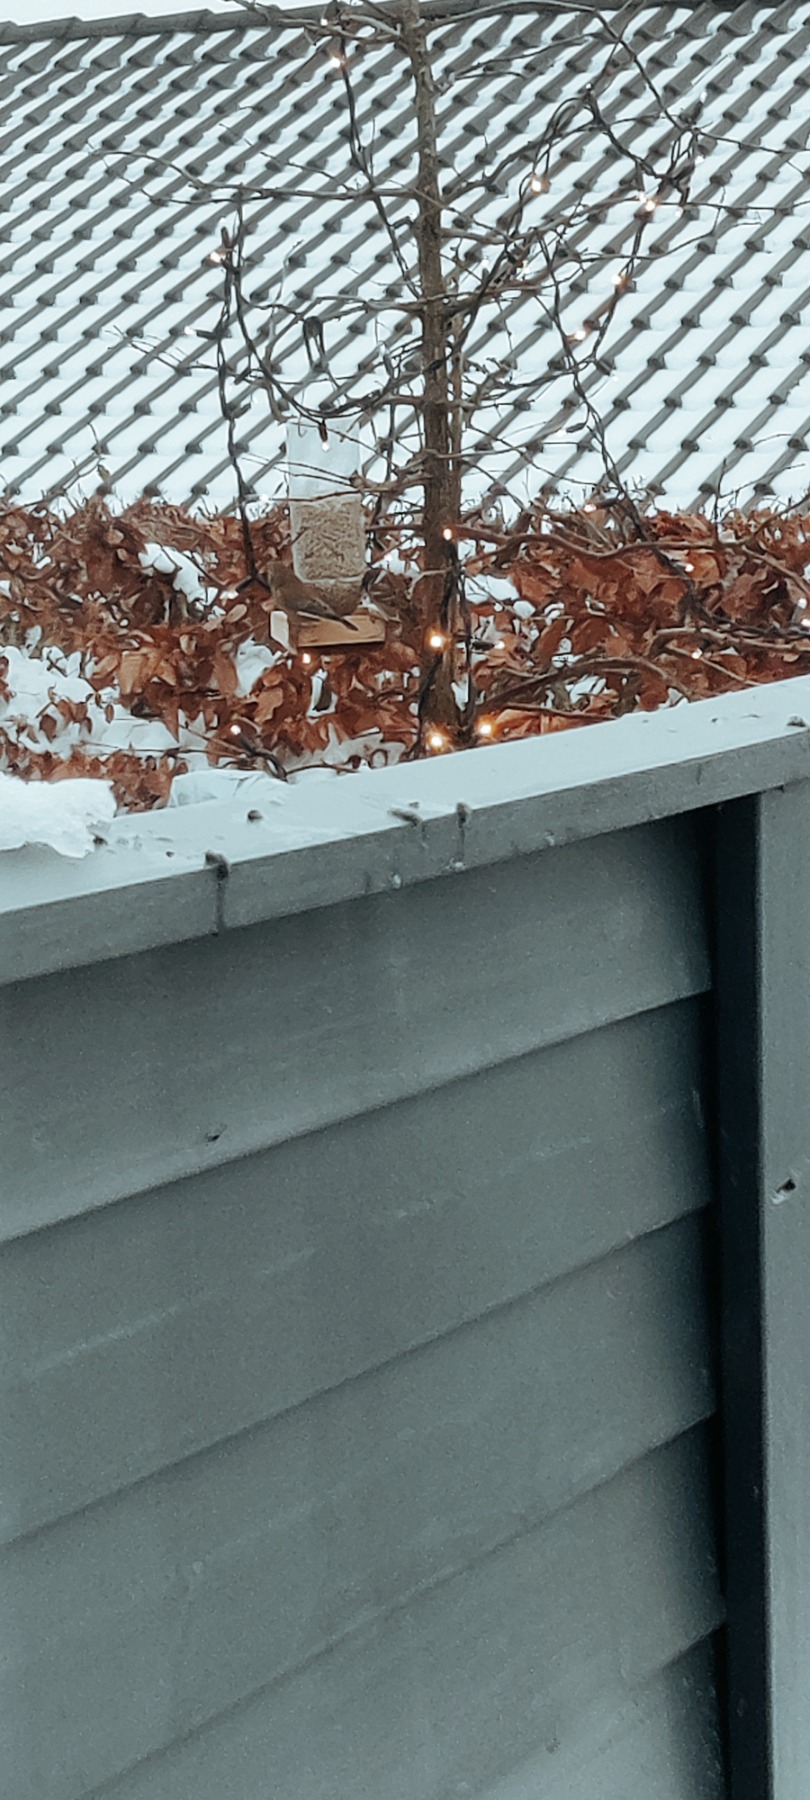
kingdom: Animalia
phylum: Chordata
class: Aves
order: Passeriformes
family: Passeridae
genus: Passer
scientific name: Passer montanus
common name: Skovspurv
